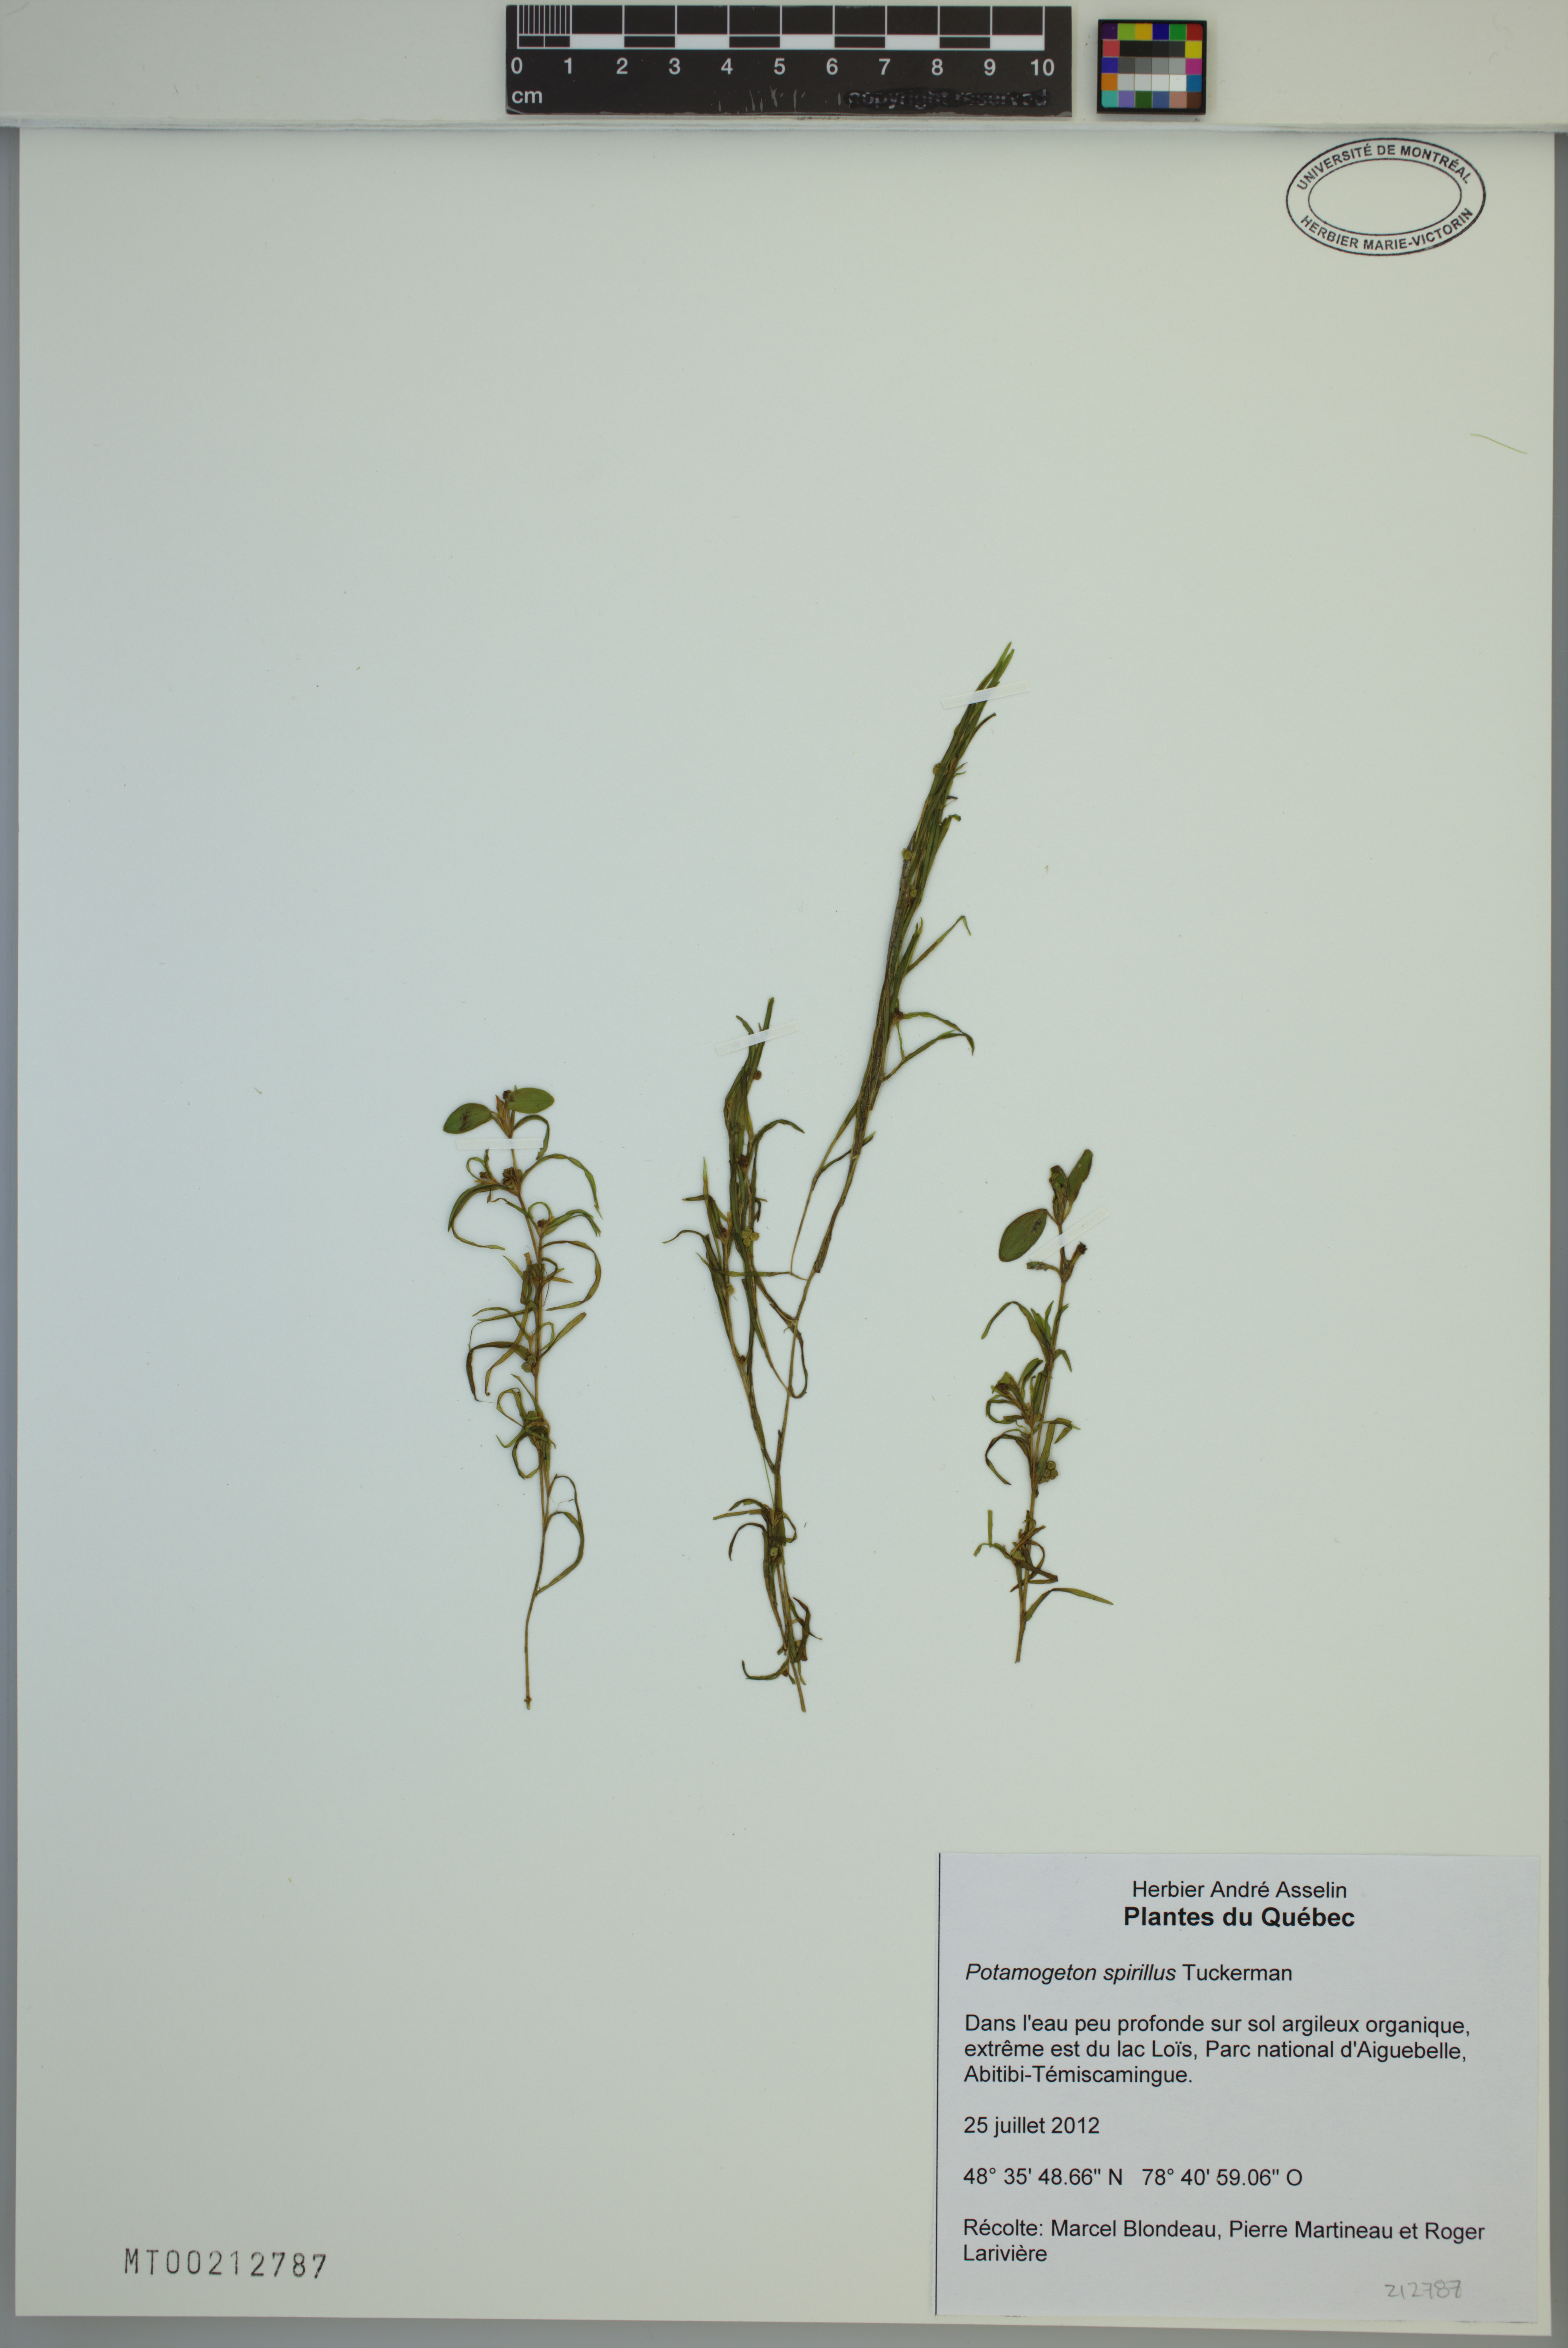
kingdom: Plantae
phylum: Tracheophyta
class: Liliopsida
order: Alismatales
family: Potamogetonaceae
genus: Potamogeton
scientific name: Potamogeton spirillus
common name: Northern snail-seed pondweed
